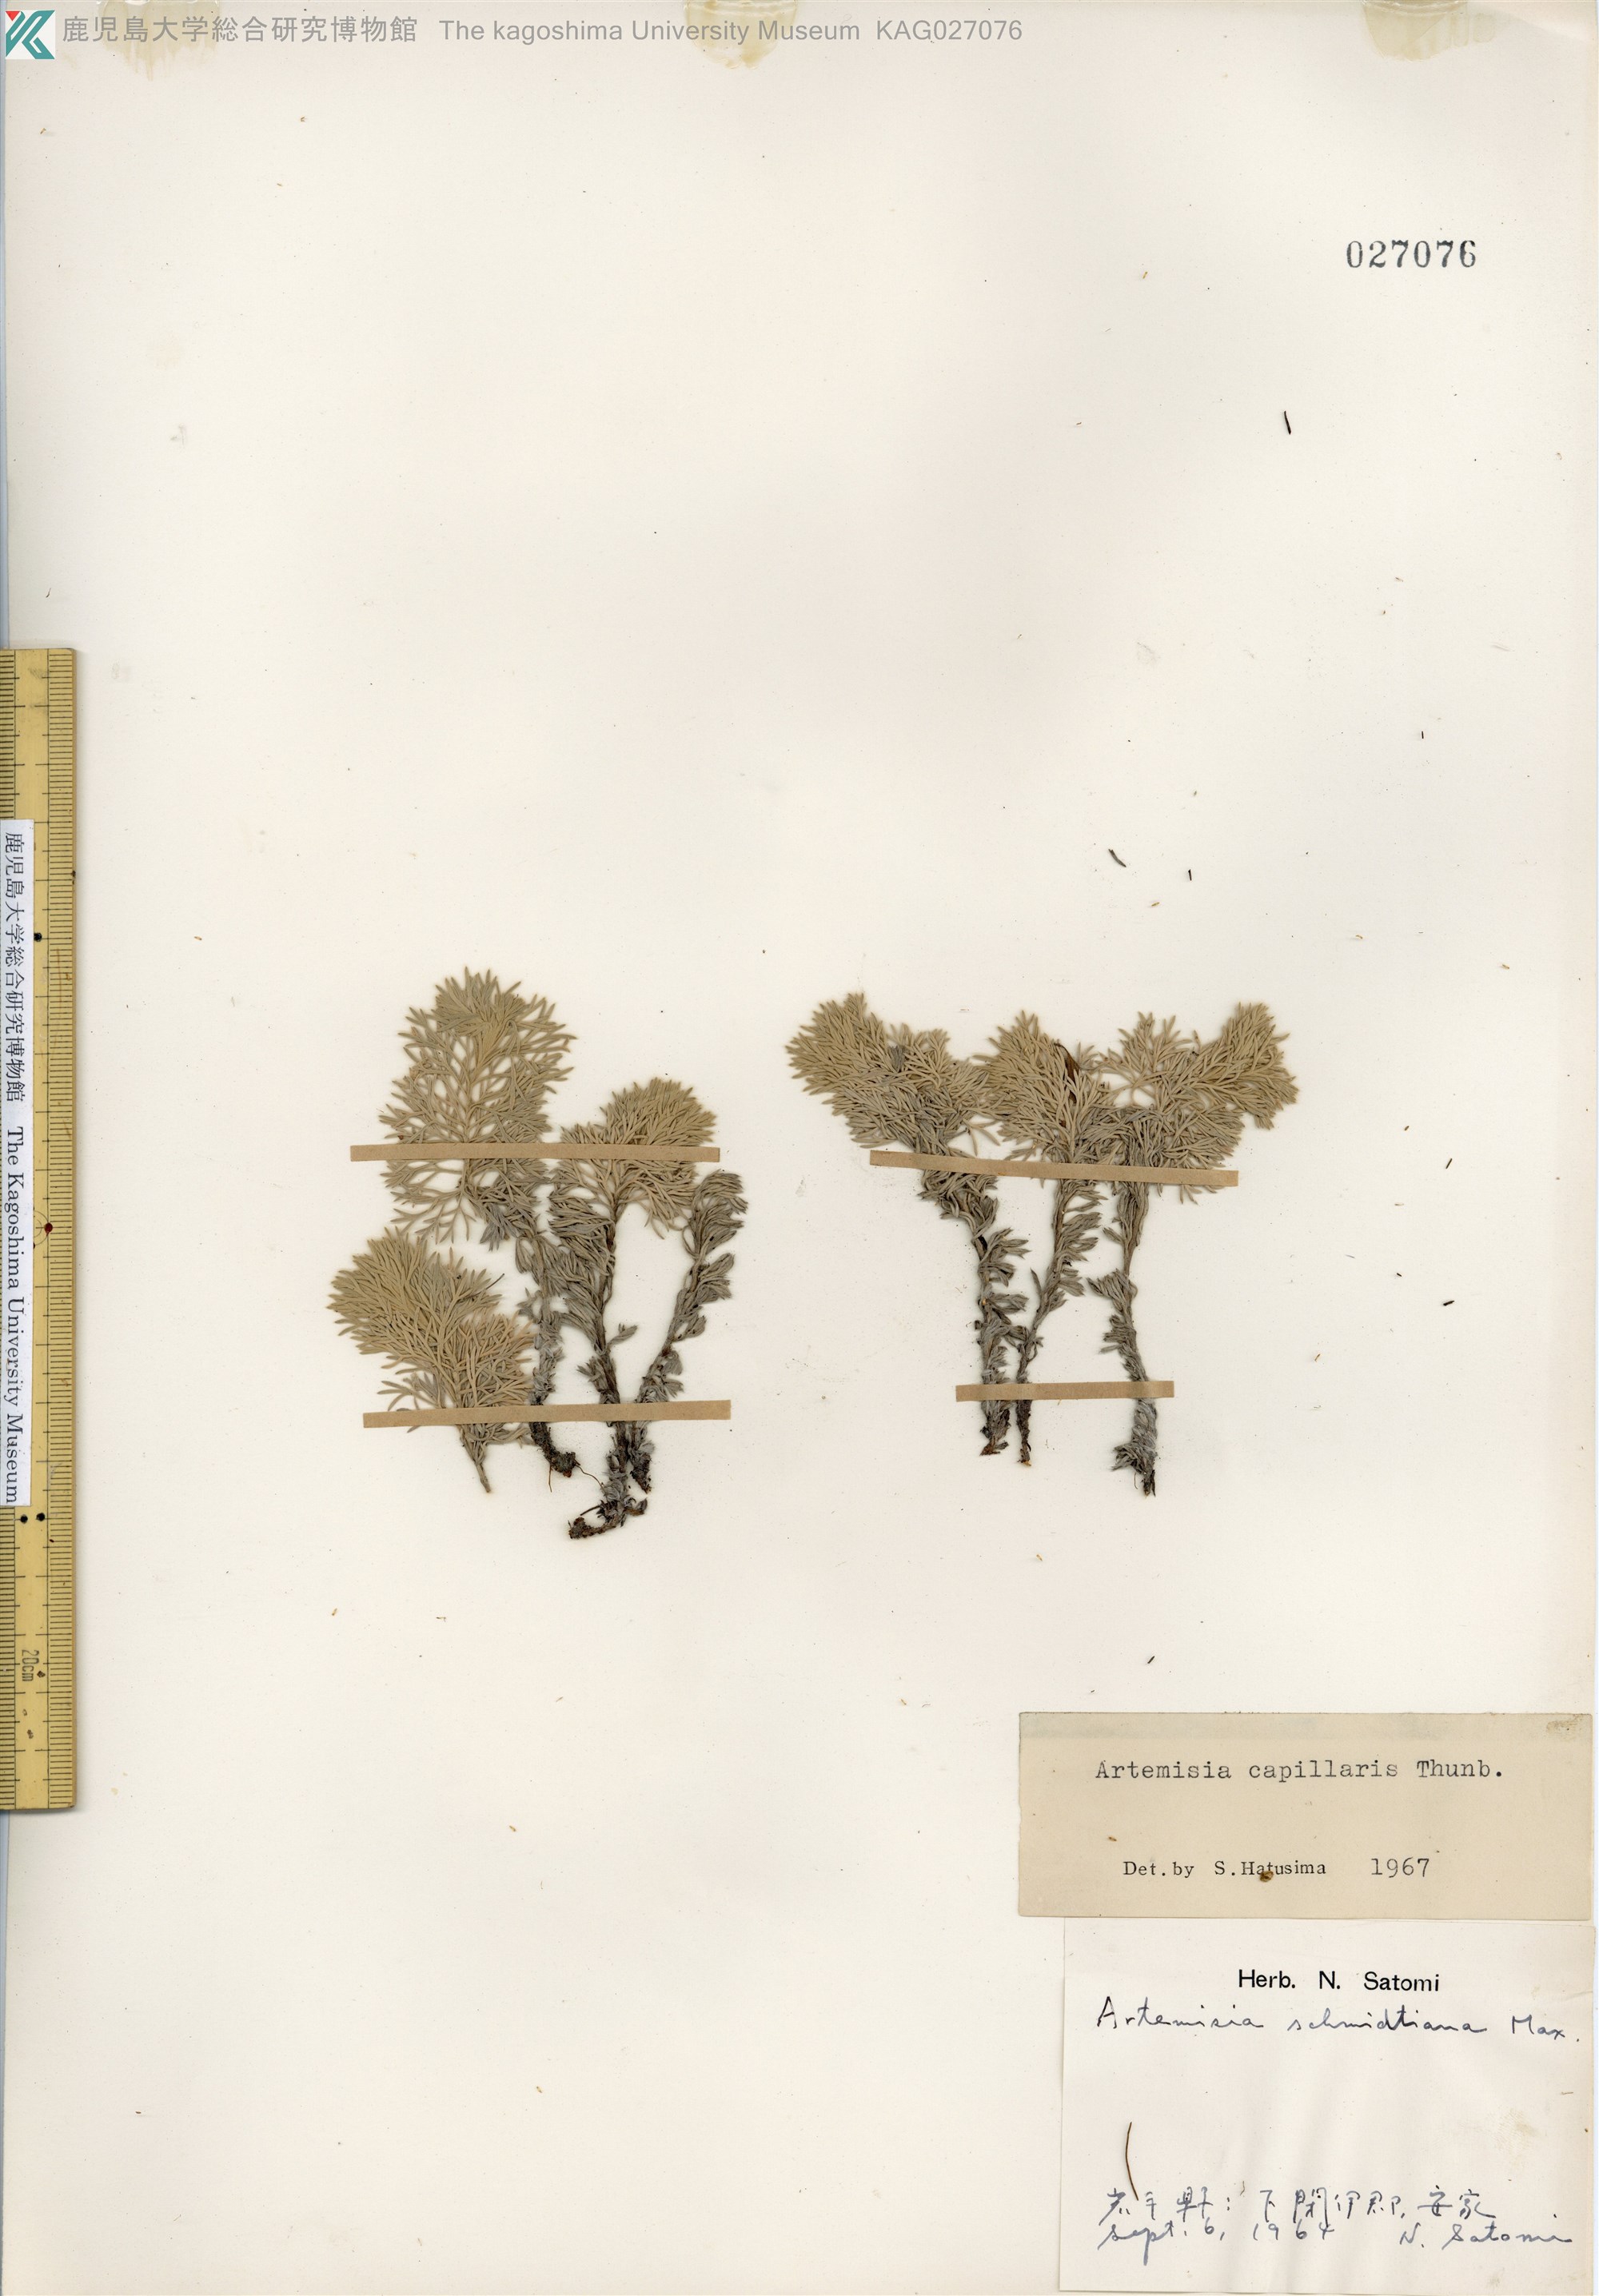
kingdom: Plantae
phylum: Tracheophyta
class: Magnoliopsida
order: Asterales
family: Asteraceae
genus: Artemisia
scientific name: Artemisia capillaris
